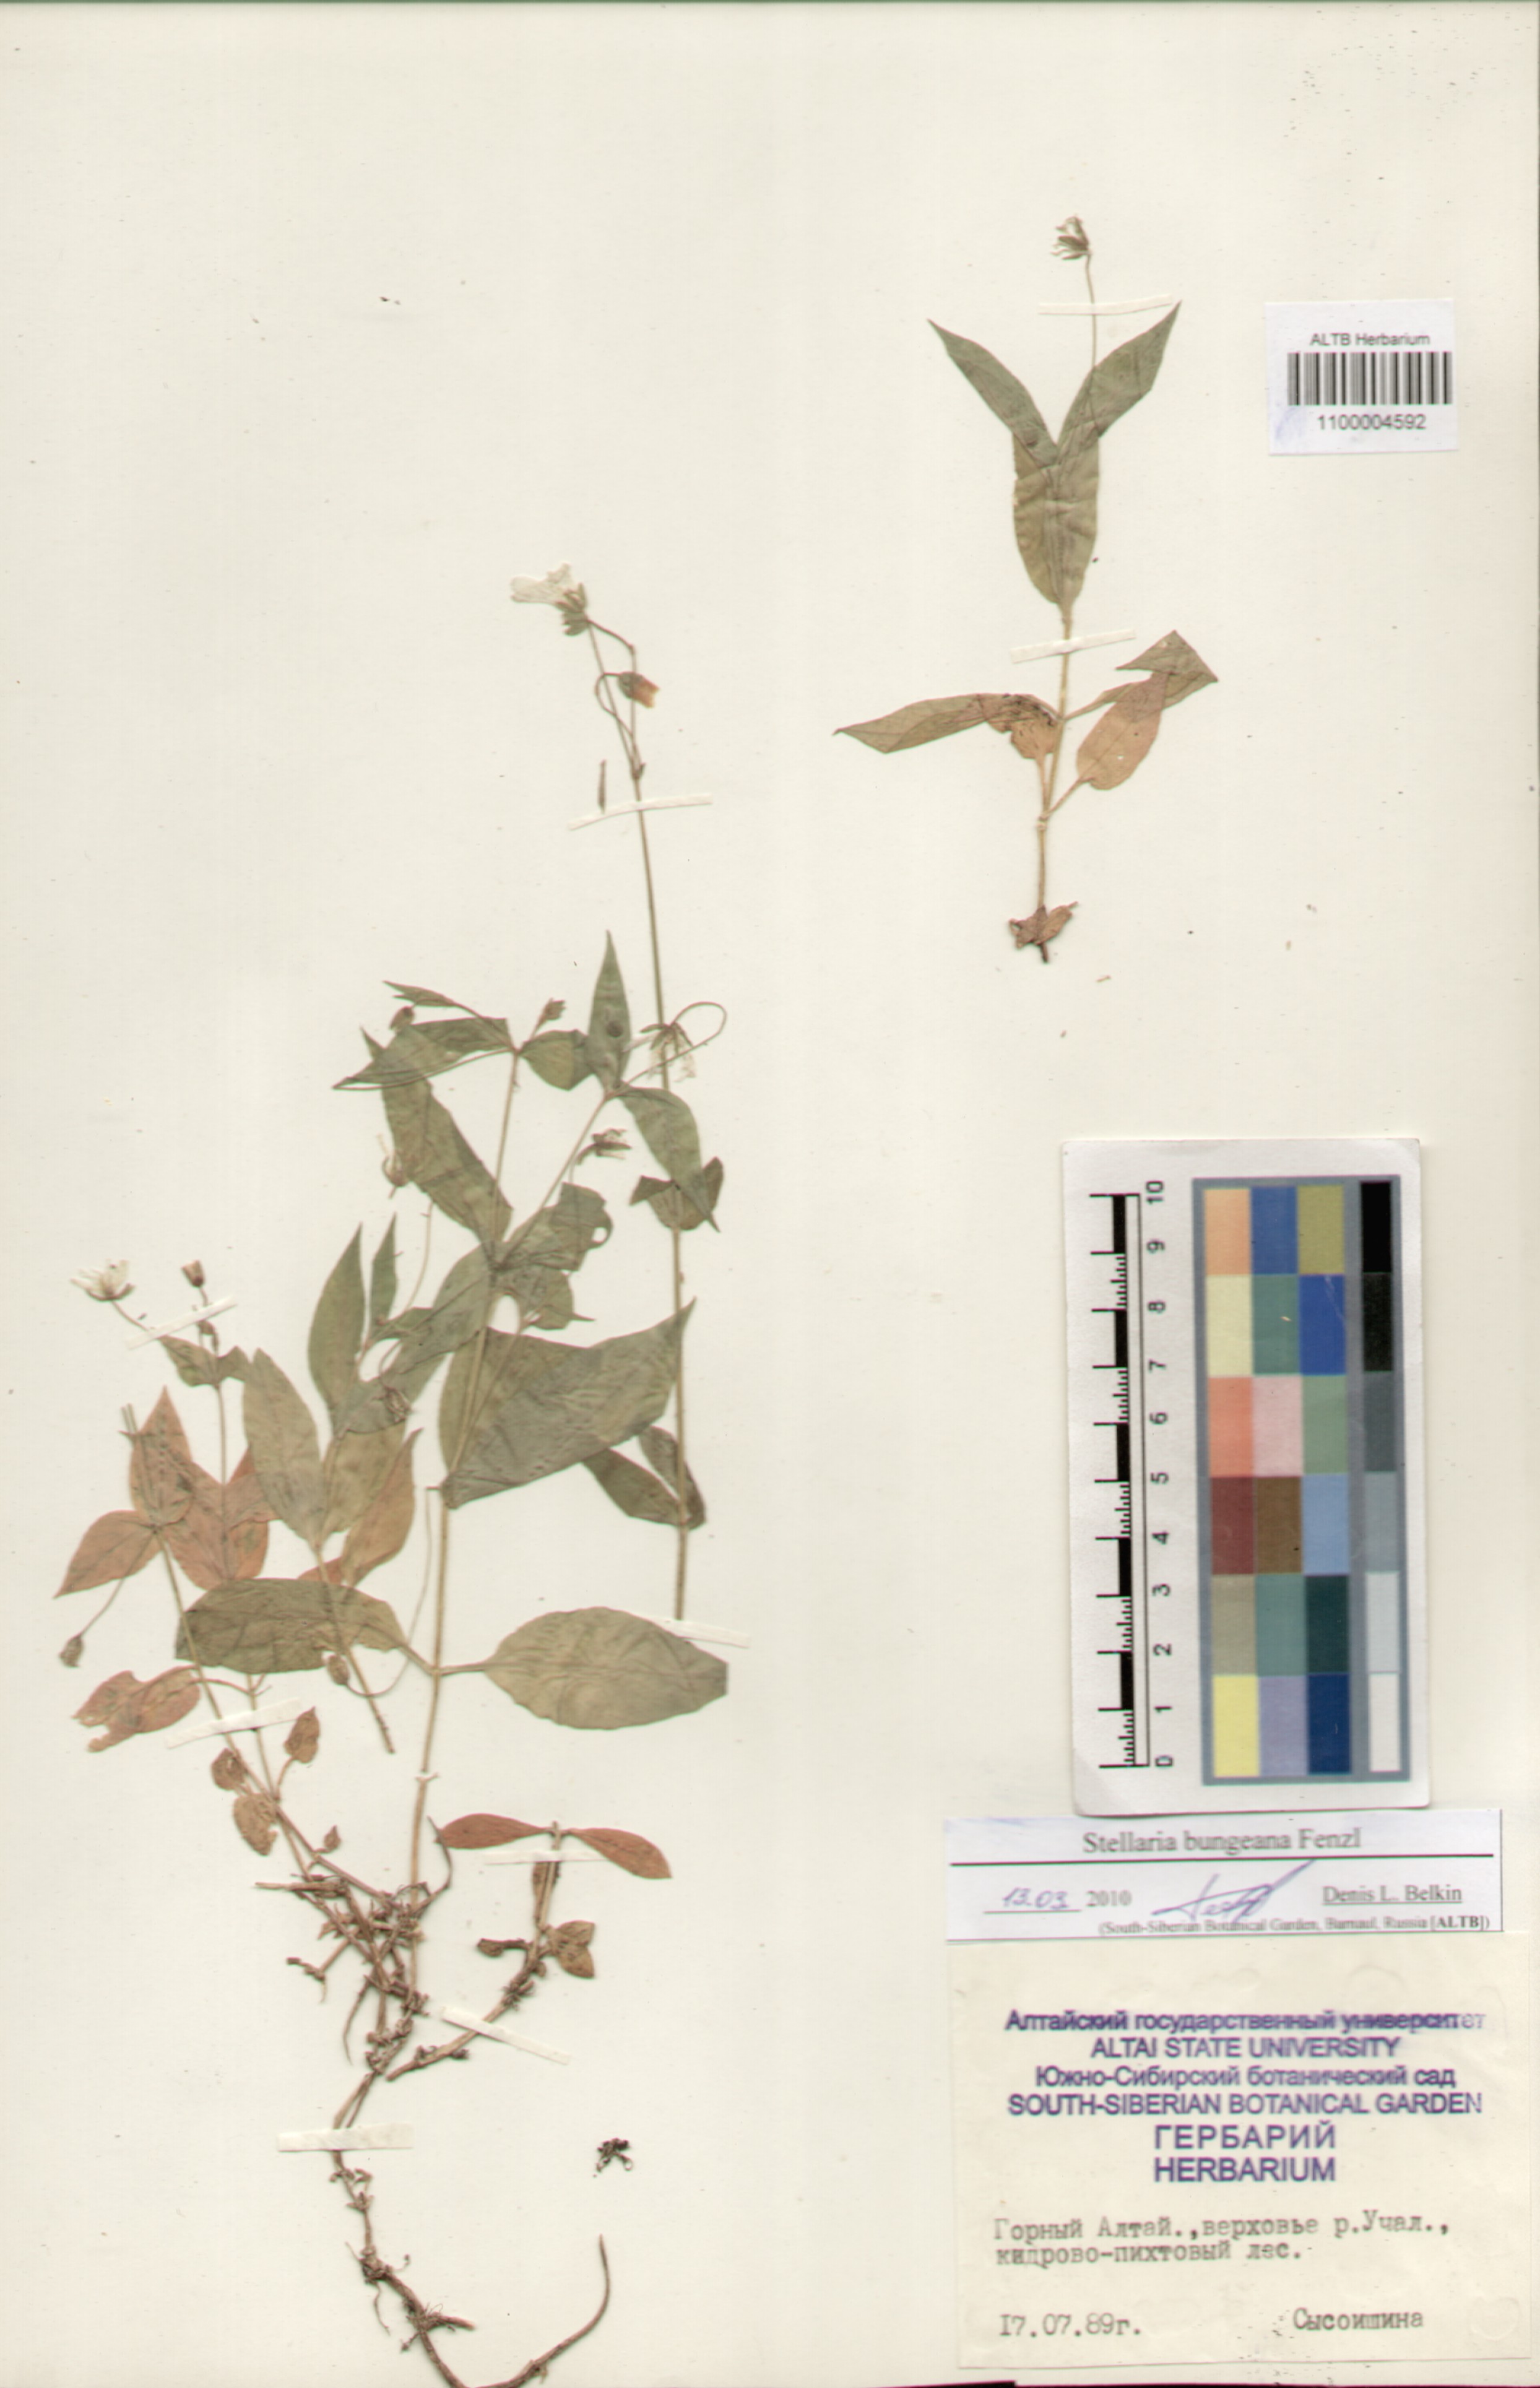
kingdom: Plantae
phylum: Tracheophyta
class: Magnoliopsida
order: Caryophyllales
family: Caryophyllaceae
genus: Stellaria
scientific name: Stellaria bungeana
